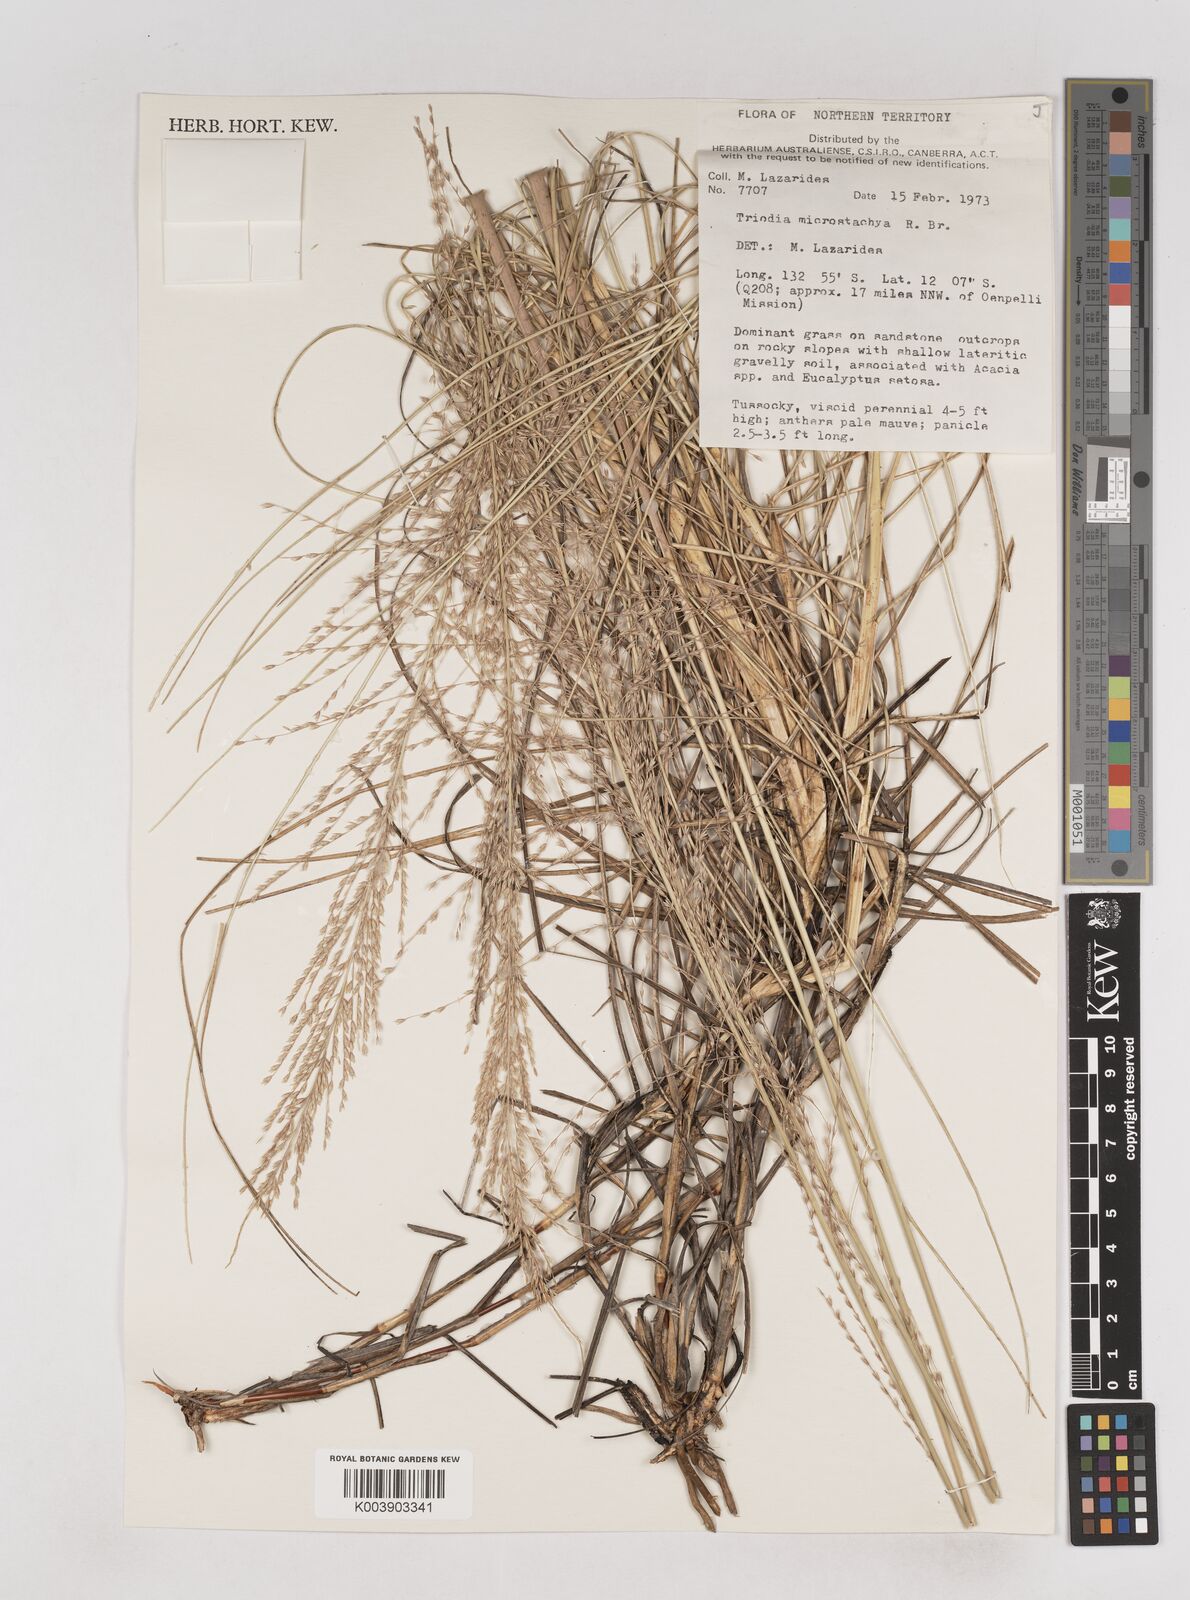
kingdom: Plantae
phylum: Tracheophyta
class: Liliopsida
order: Poales
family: Poaceae
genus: Triodia
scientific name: Triodia microstachya
